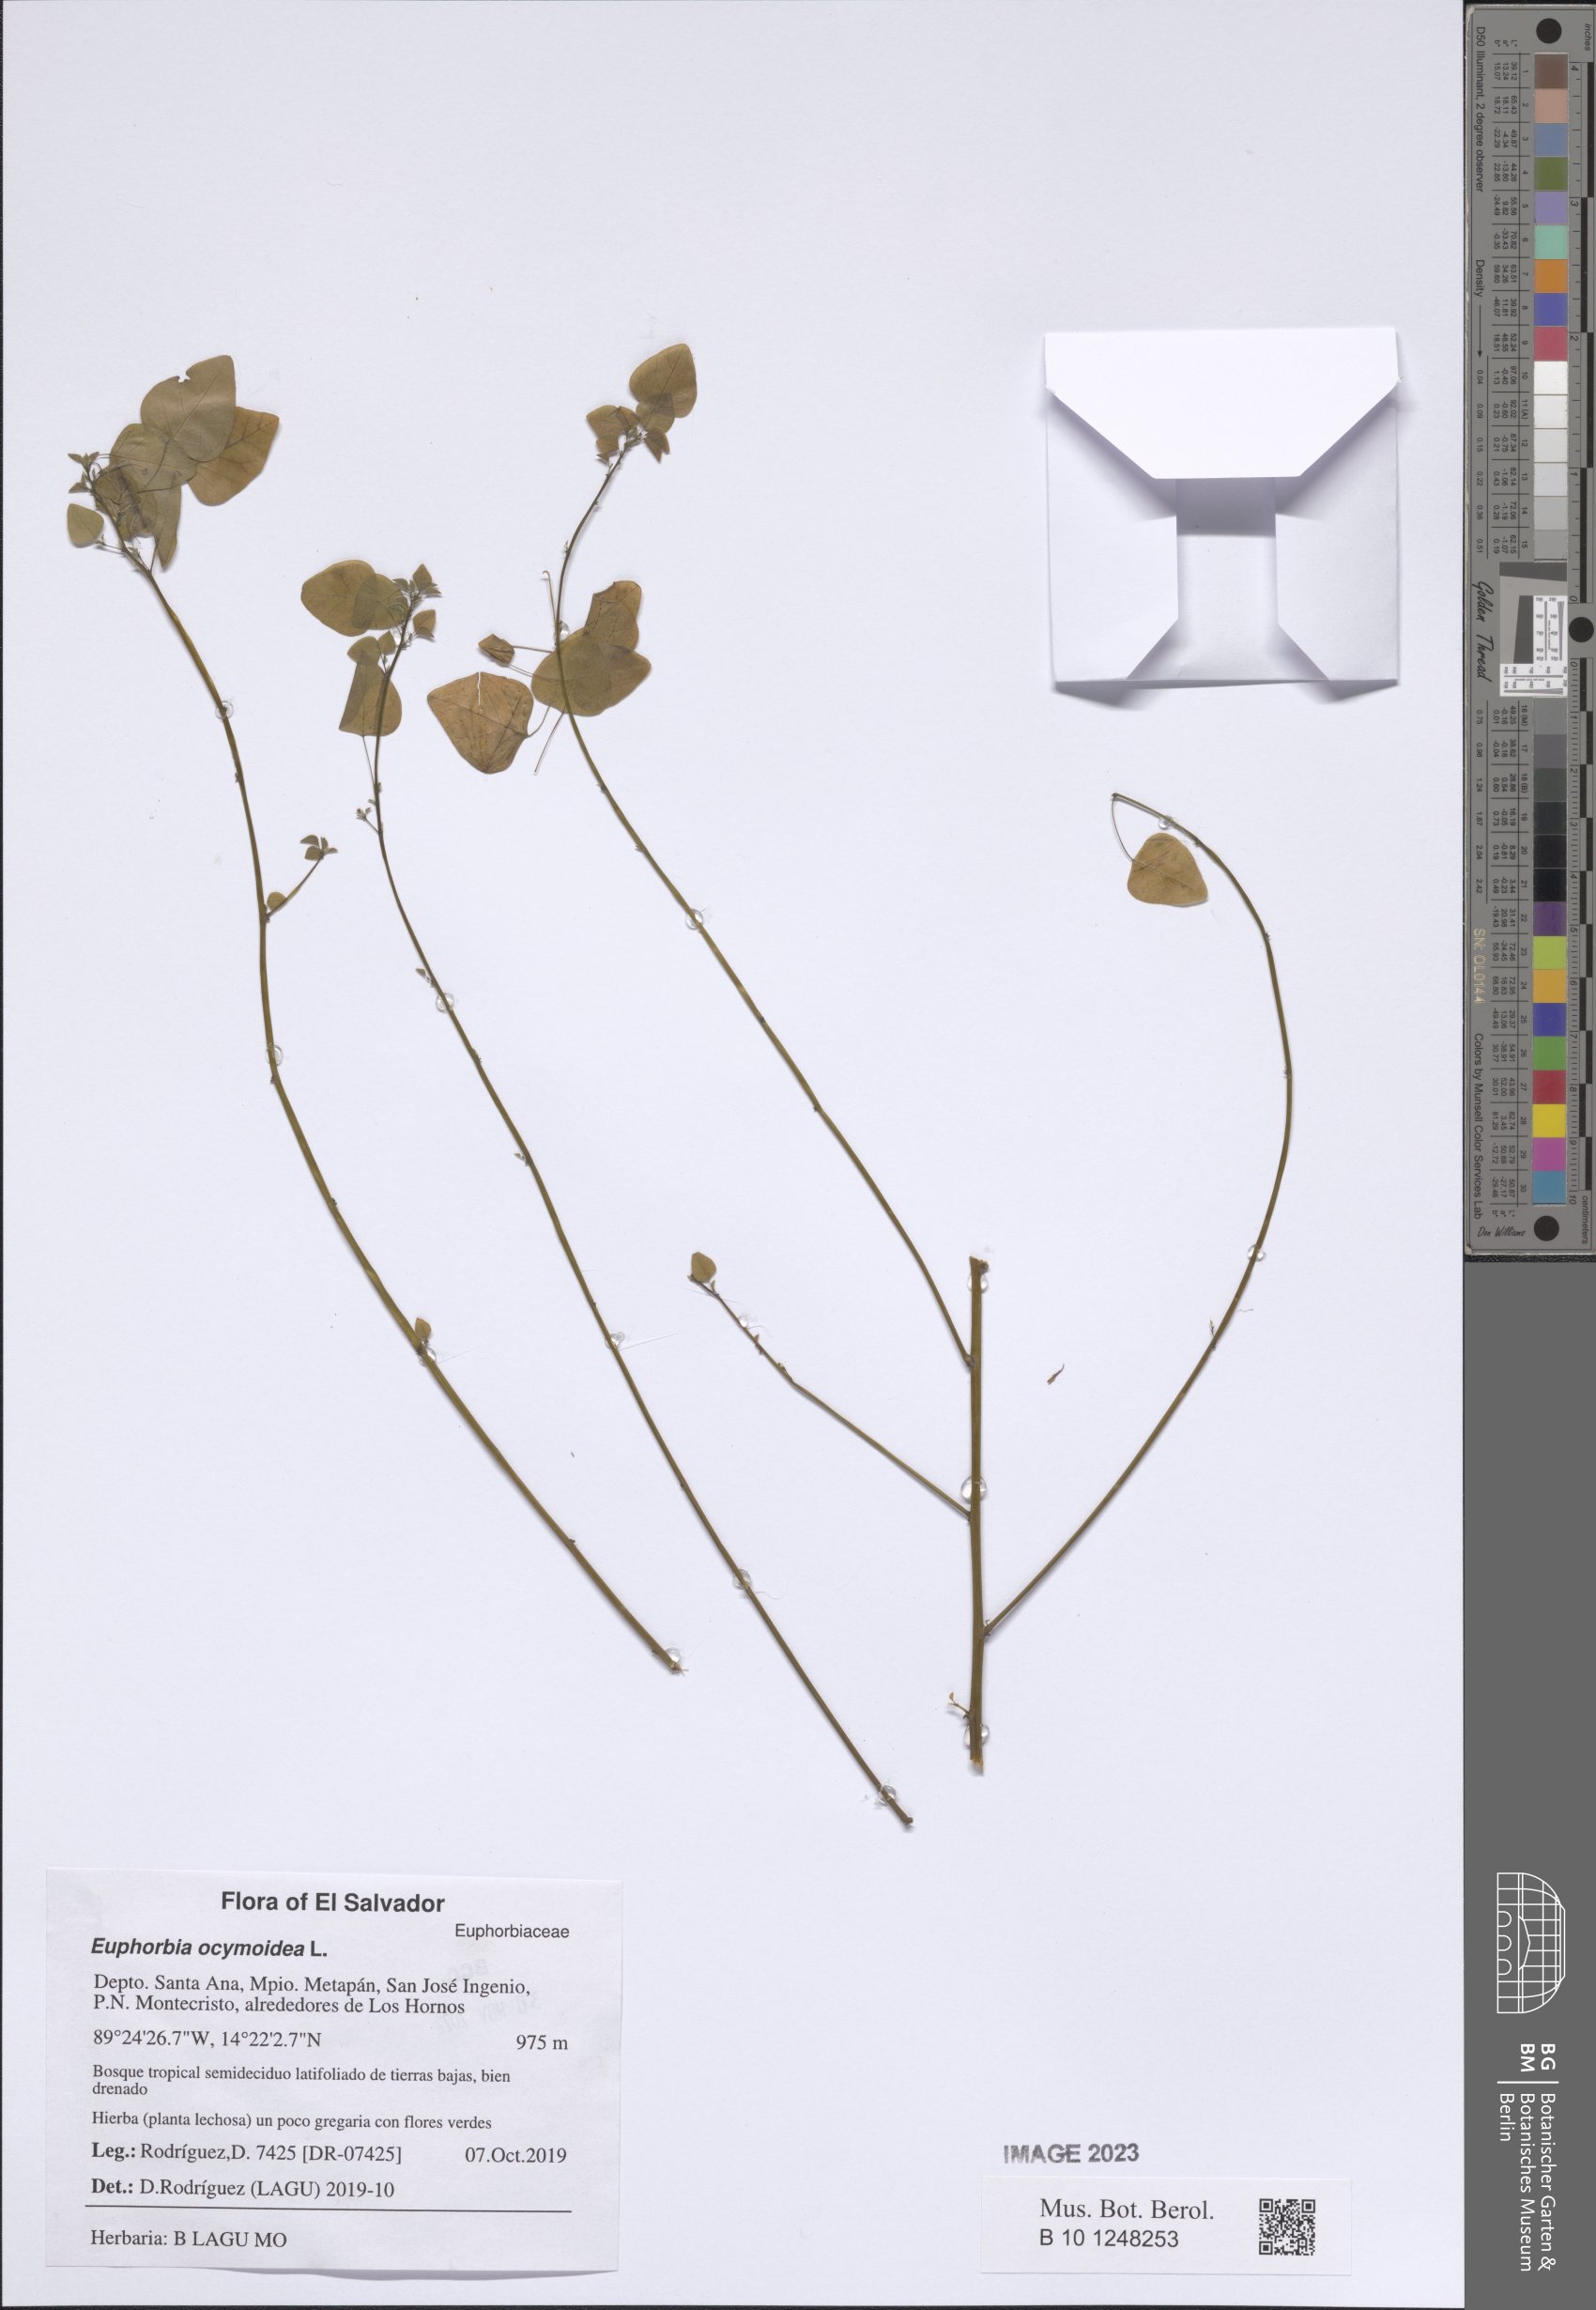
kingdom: Plantae
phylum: Tracheophyta
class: Magnoliopsida
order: Malpighiales
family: Euphorbiaceae
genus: Euphorbia
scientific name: Euphorbia ocymoidea
